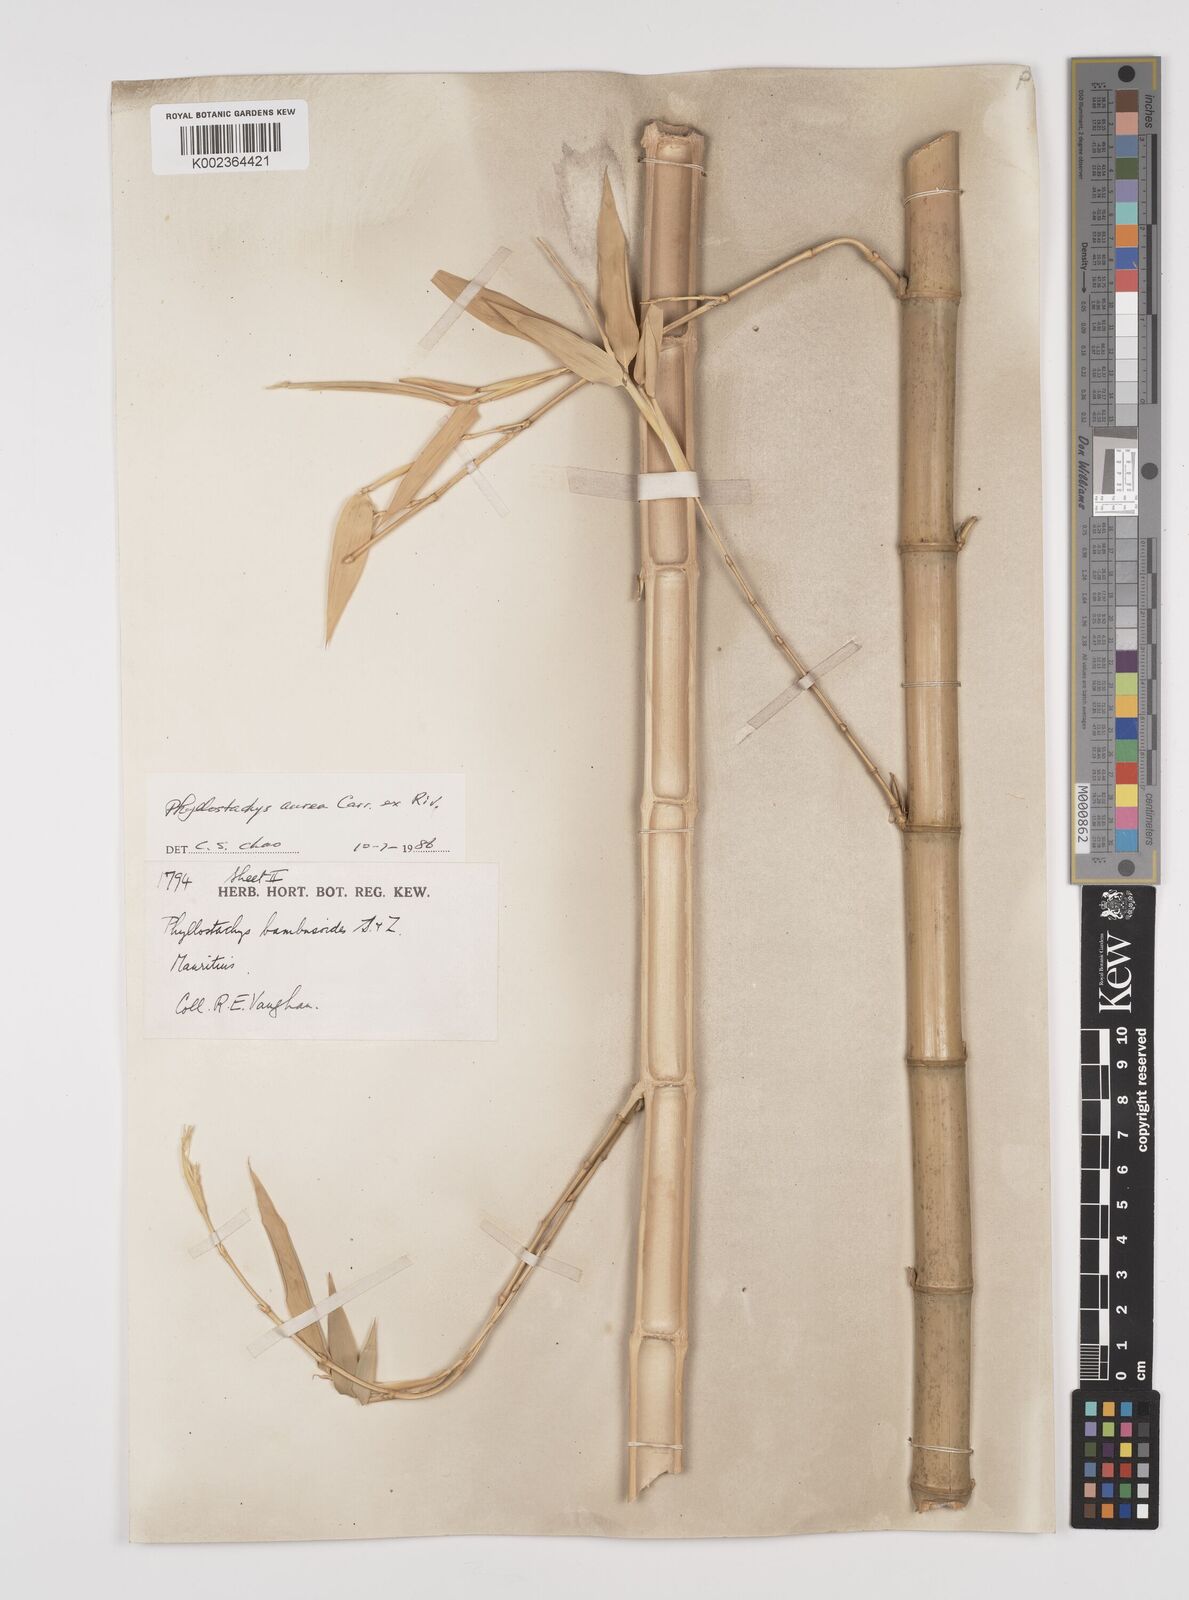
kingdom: Plantae
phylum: Tracheophyta
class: Liliopsida
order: Poales
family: Poaceae
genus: Phyllostachys
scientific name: Phyllostachys aurea
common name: Golden bamboo
